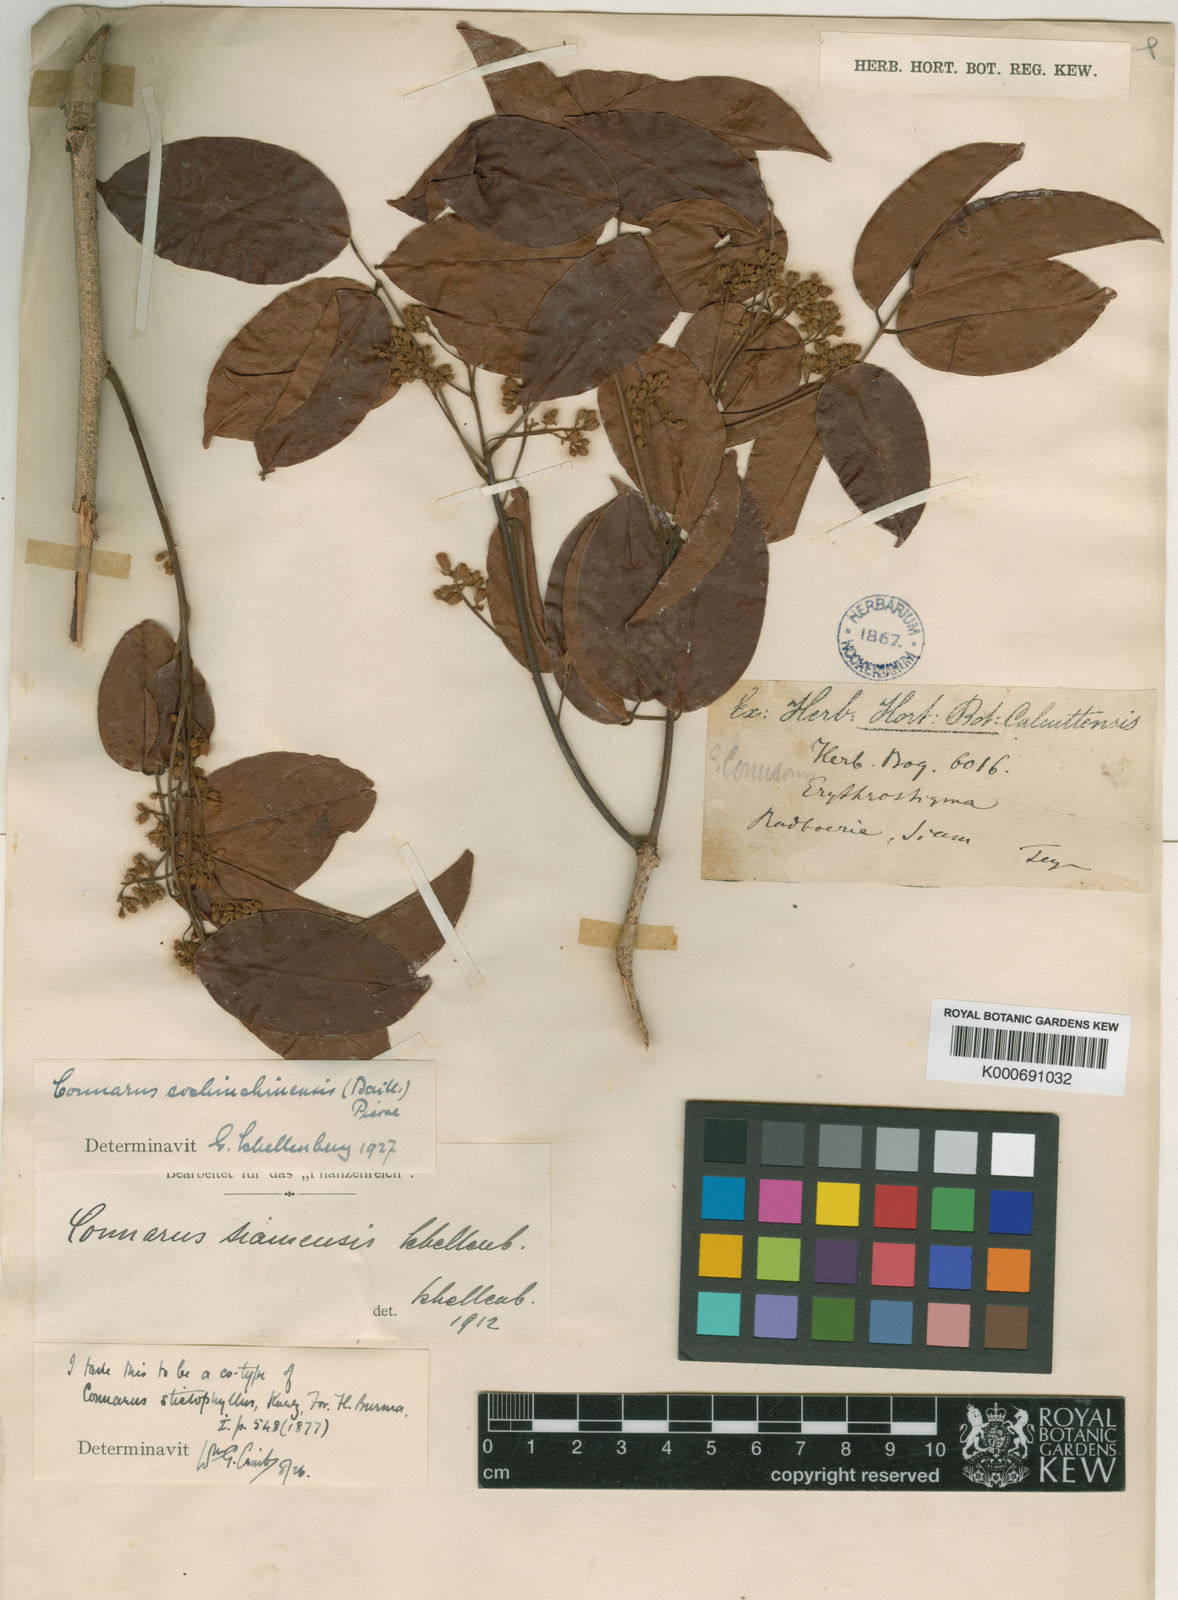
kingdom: Plantae
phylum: Tracheophyta
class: Magnoliopsida
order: Oxalidales
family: Connaraceae
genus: Connarus
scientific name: Connarus cochinchinensis
